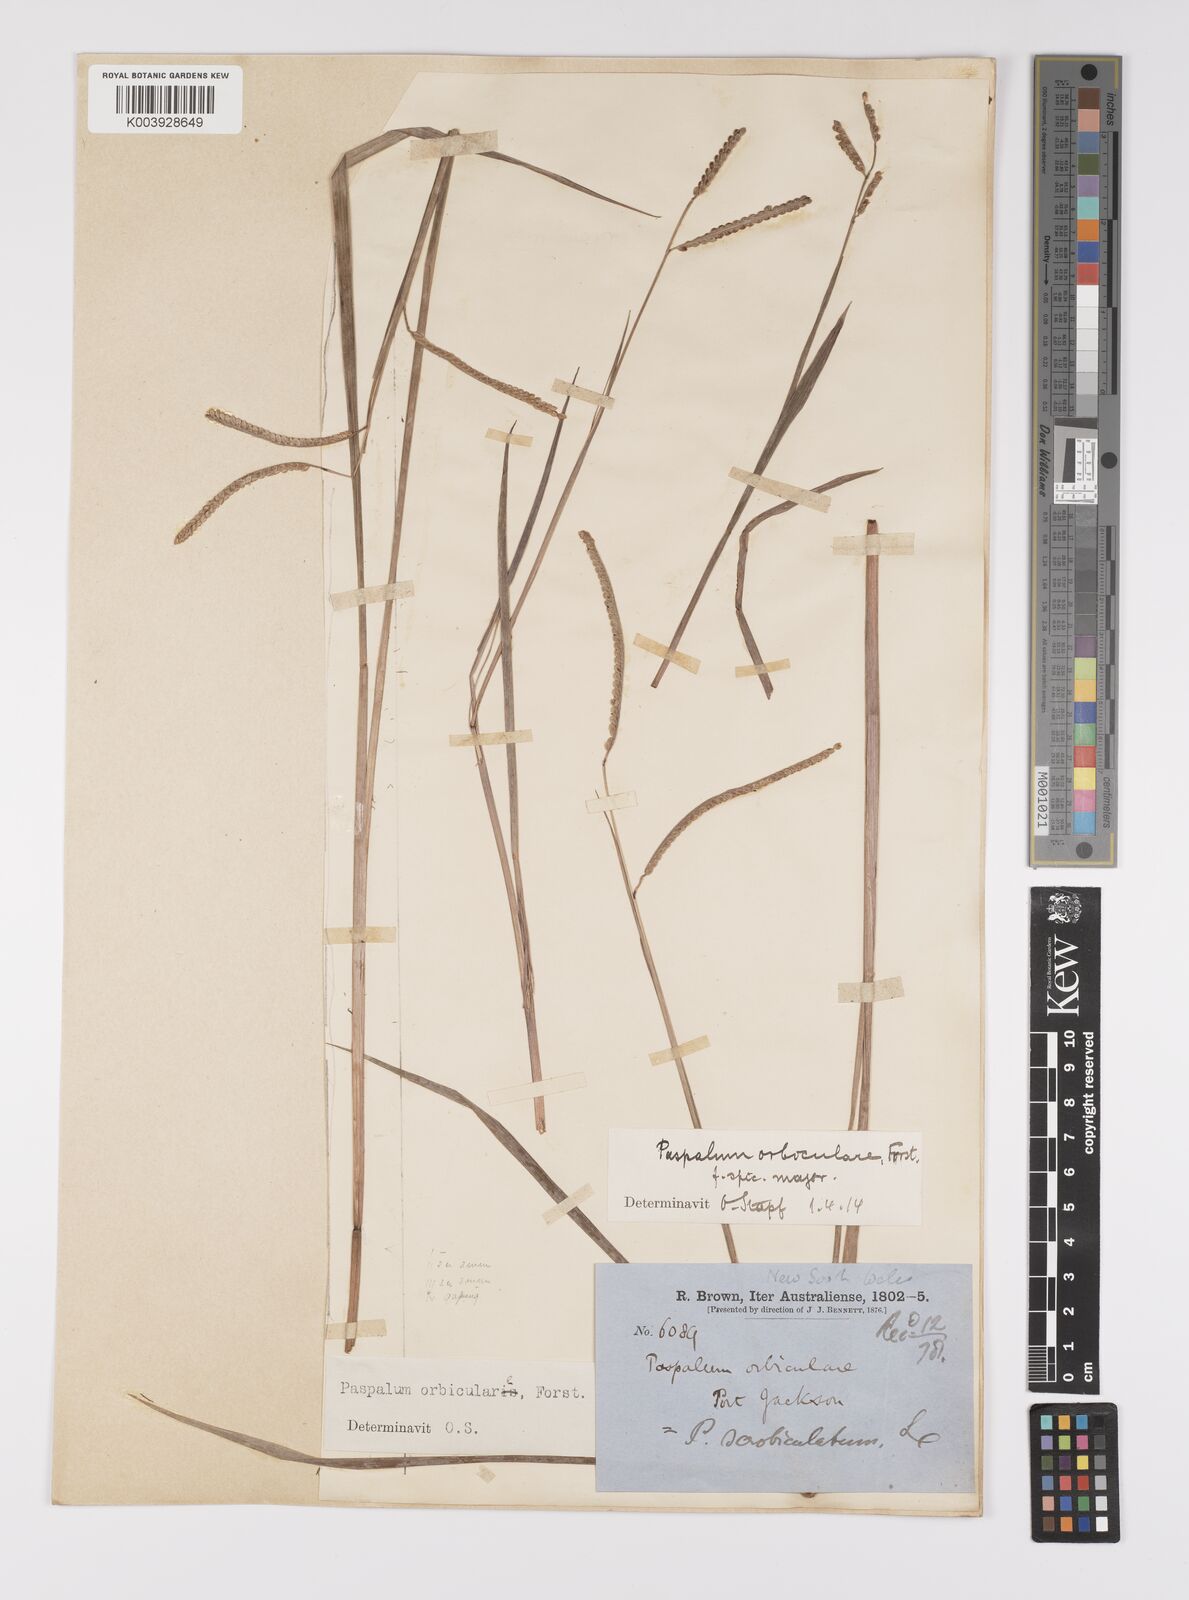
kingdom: Plantae
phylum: Tracheophyta
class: Liliopsida
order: Poales
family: Poaceae
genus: Paspalum
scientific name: Paspalum scrobiculatum
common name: Kodo millet
